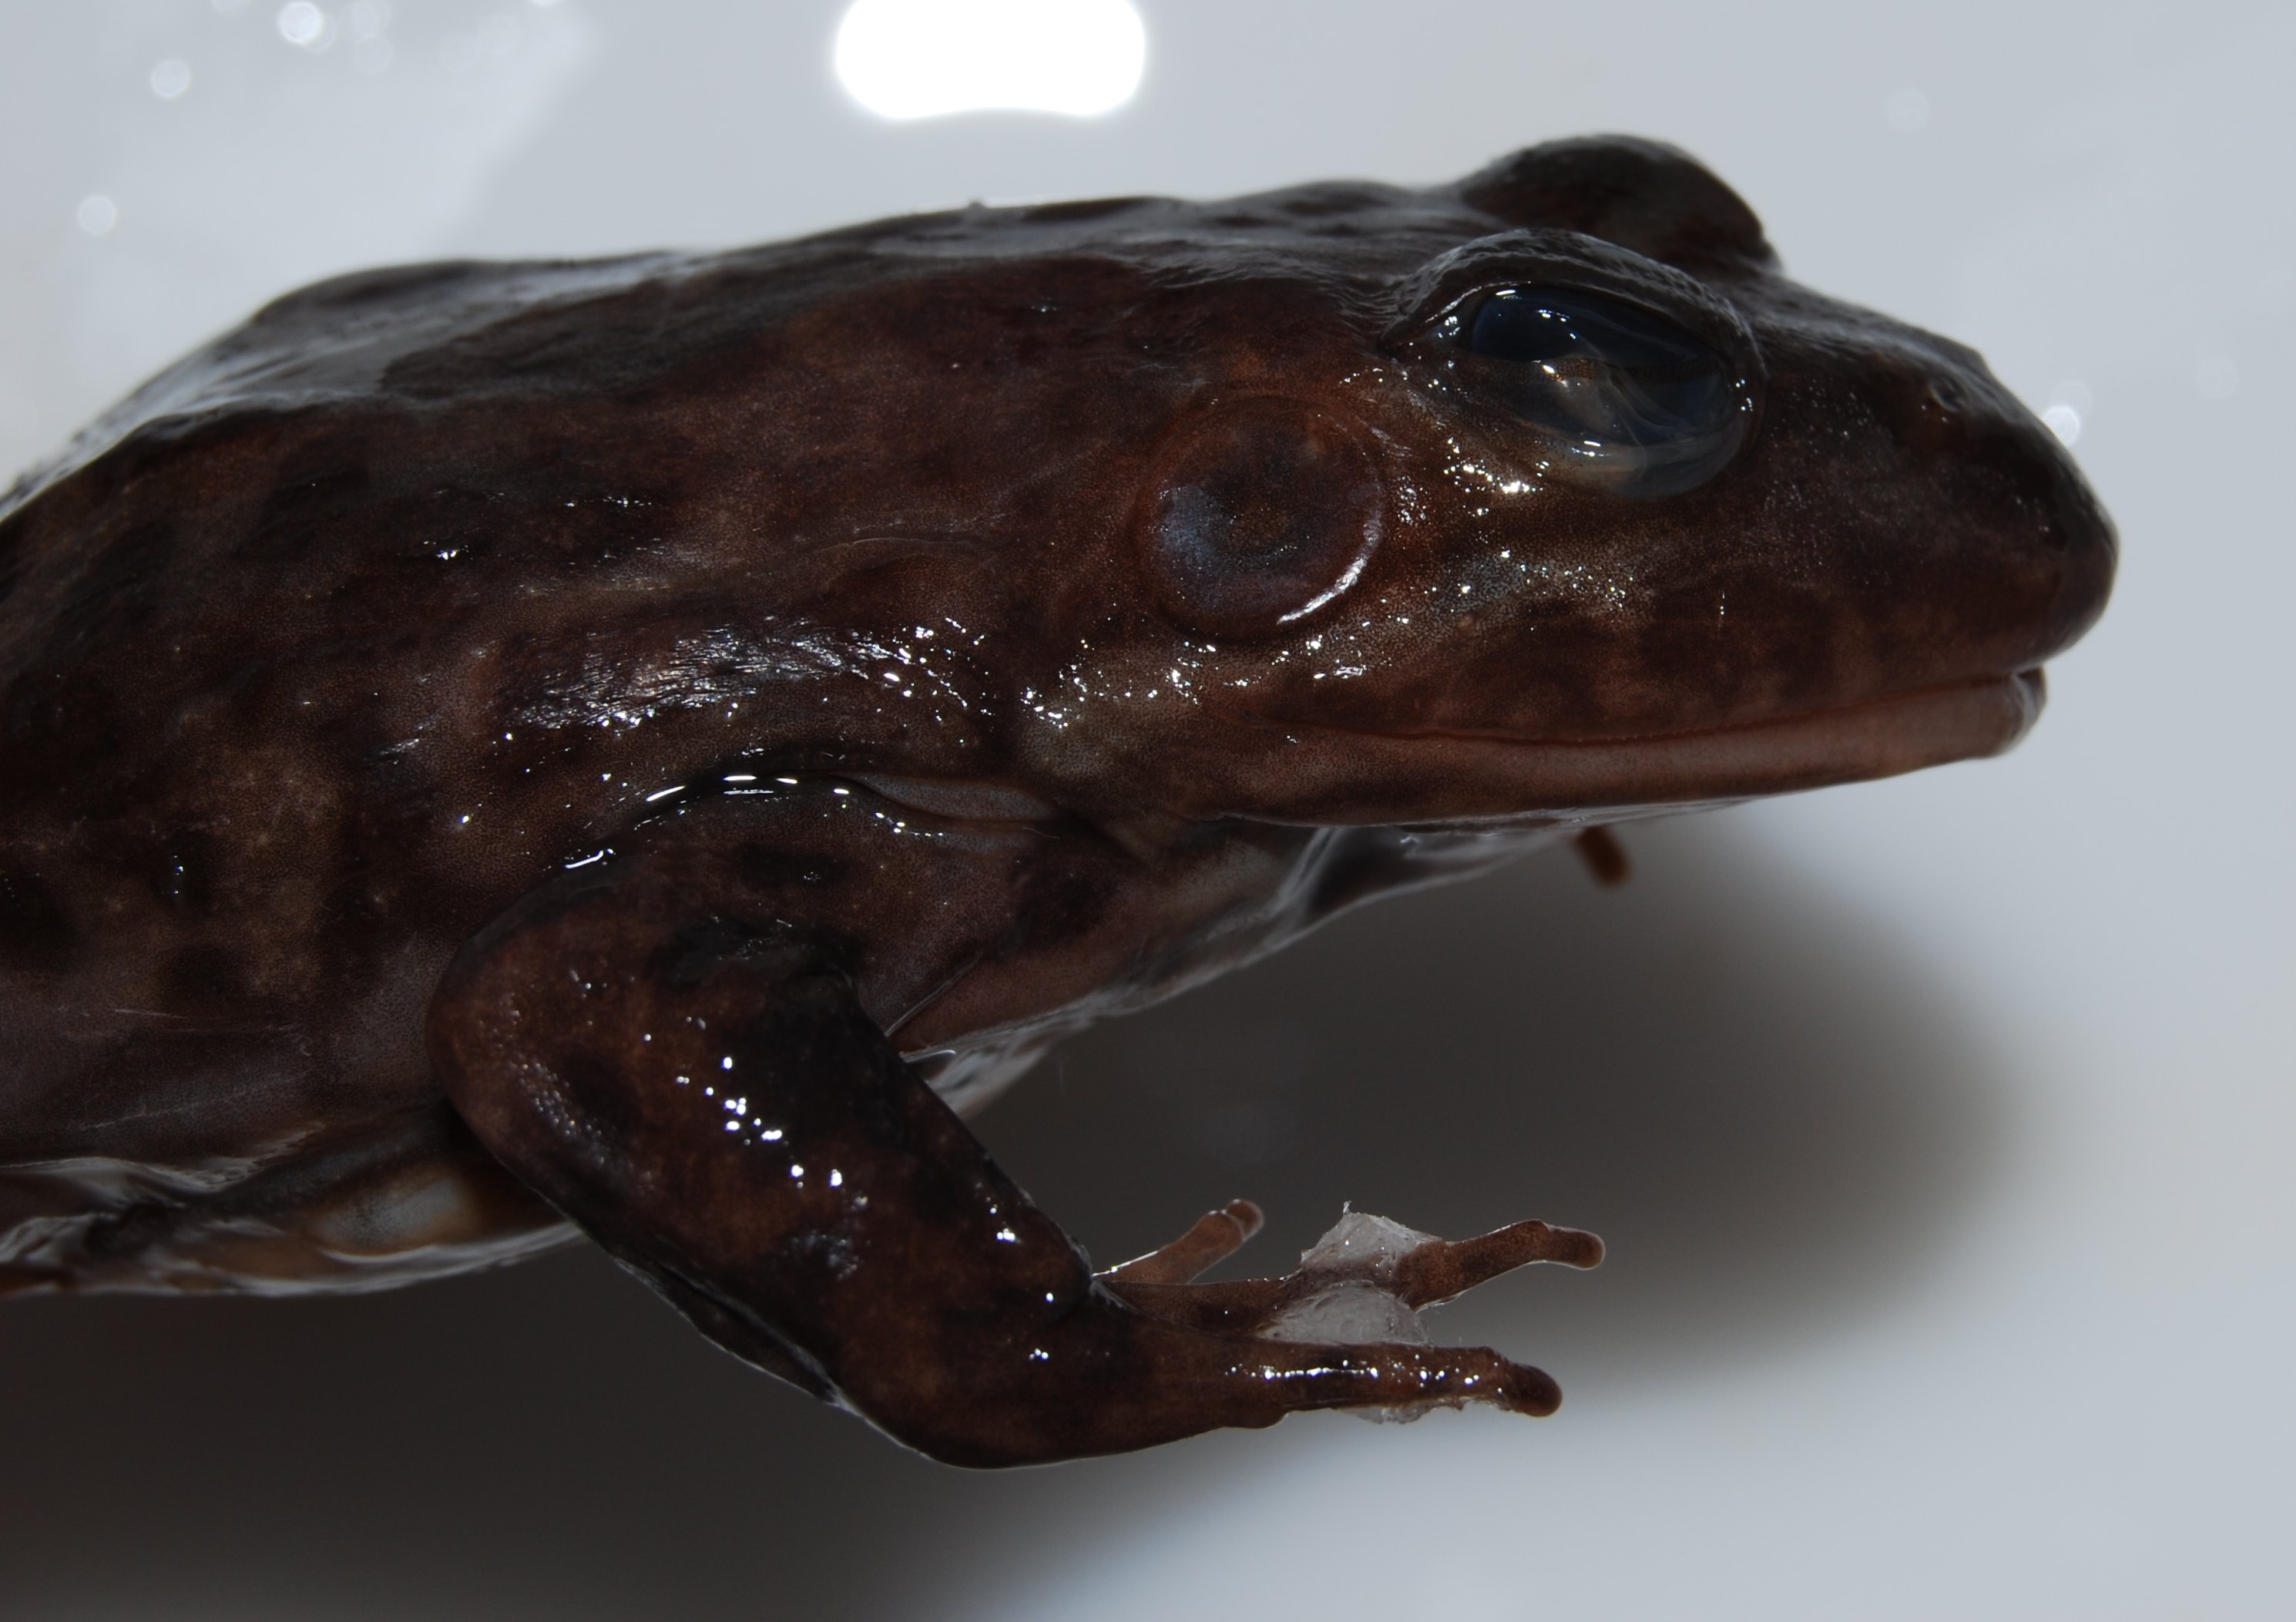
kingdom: Animalia
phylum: Chordata
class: Amphibia
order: Anura
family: Pyxicephalidae
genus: Amietia
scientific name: Amietia fuscigula
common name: Cape rana
